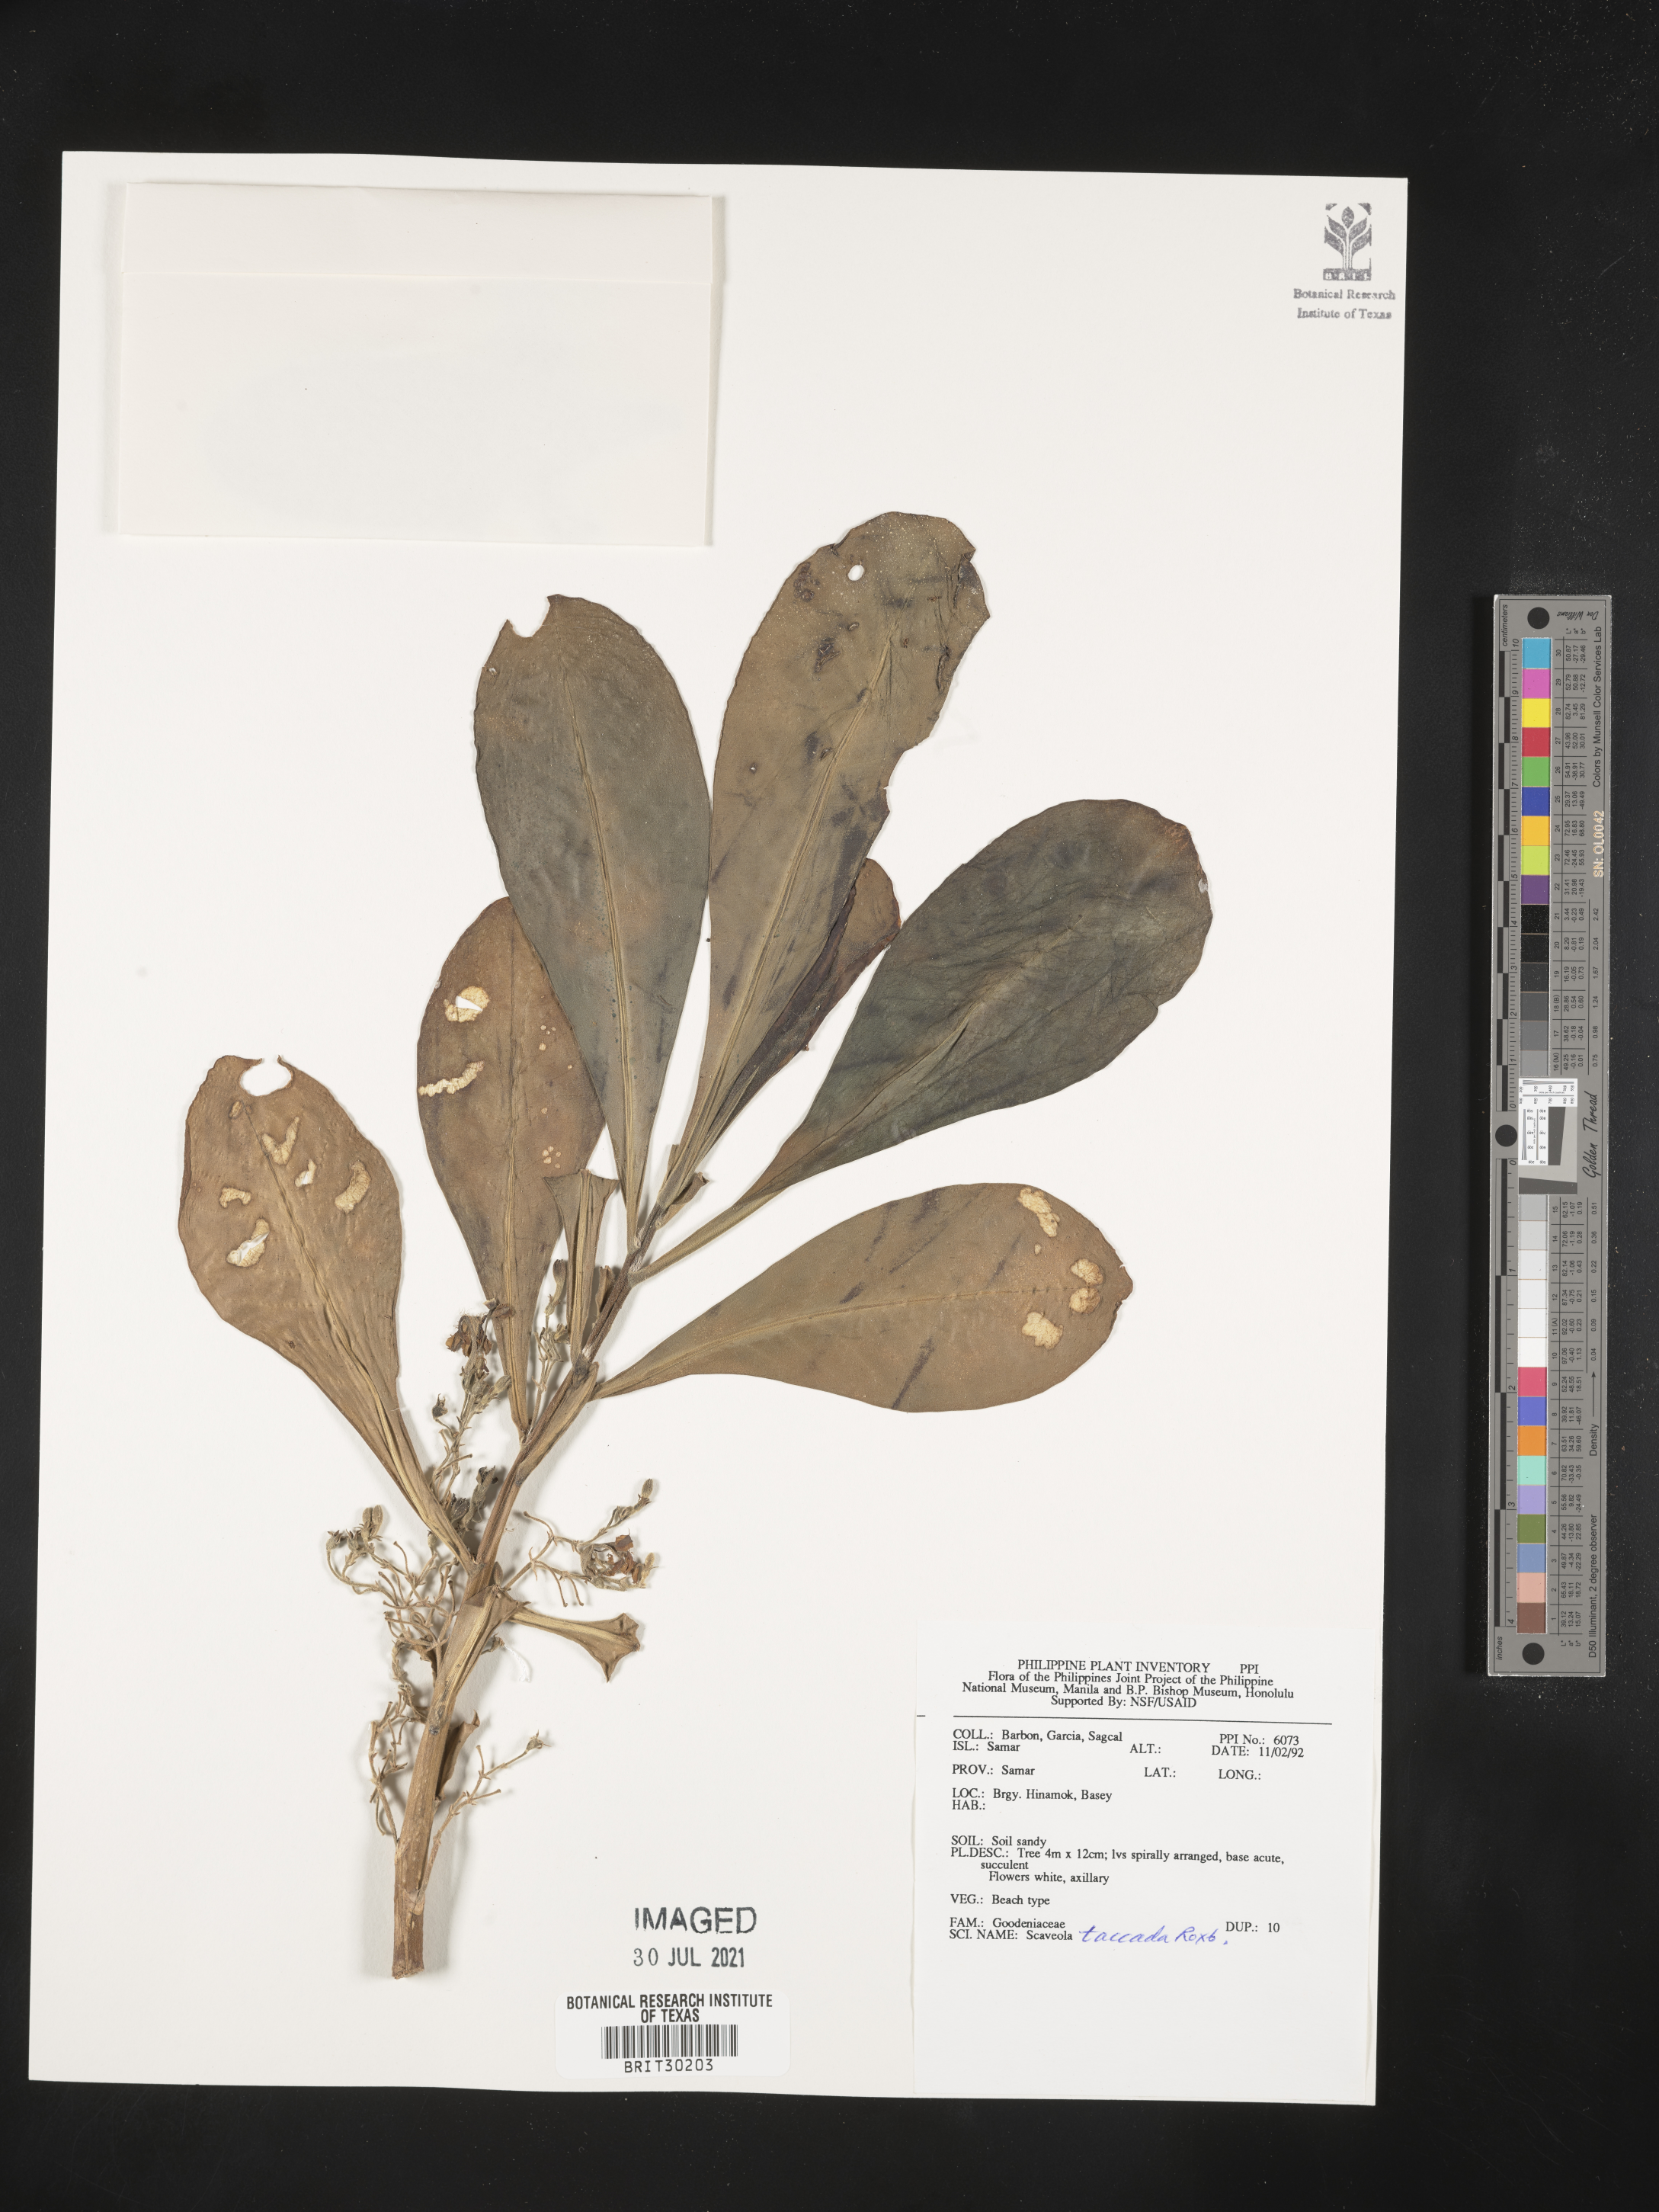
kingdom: Plantae
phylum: Tracheophyta
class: Magnoliopsida
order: Asterales
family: Goodeniaceae
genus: Scaevola
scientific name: Scaevola taccada
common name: Sea lettucetree
